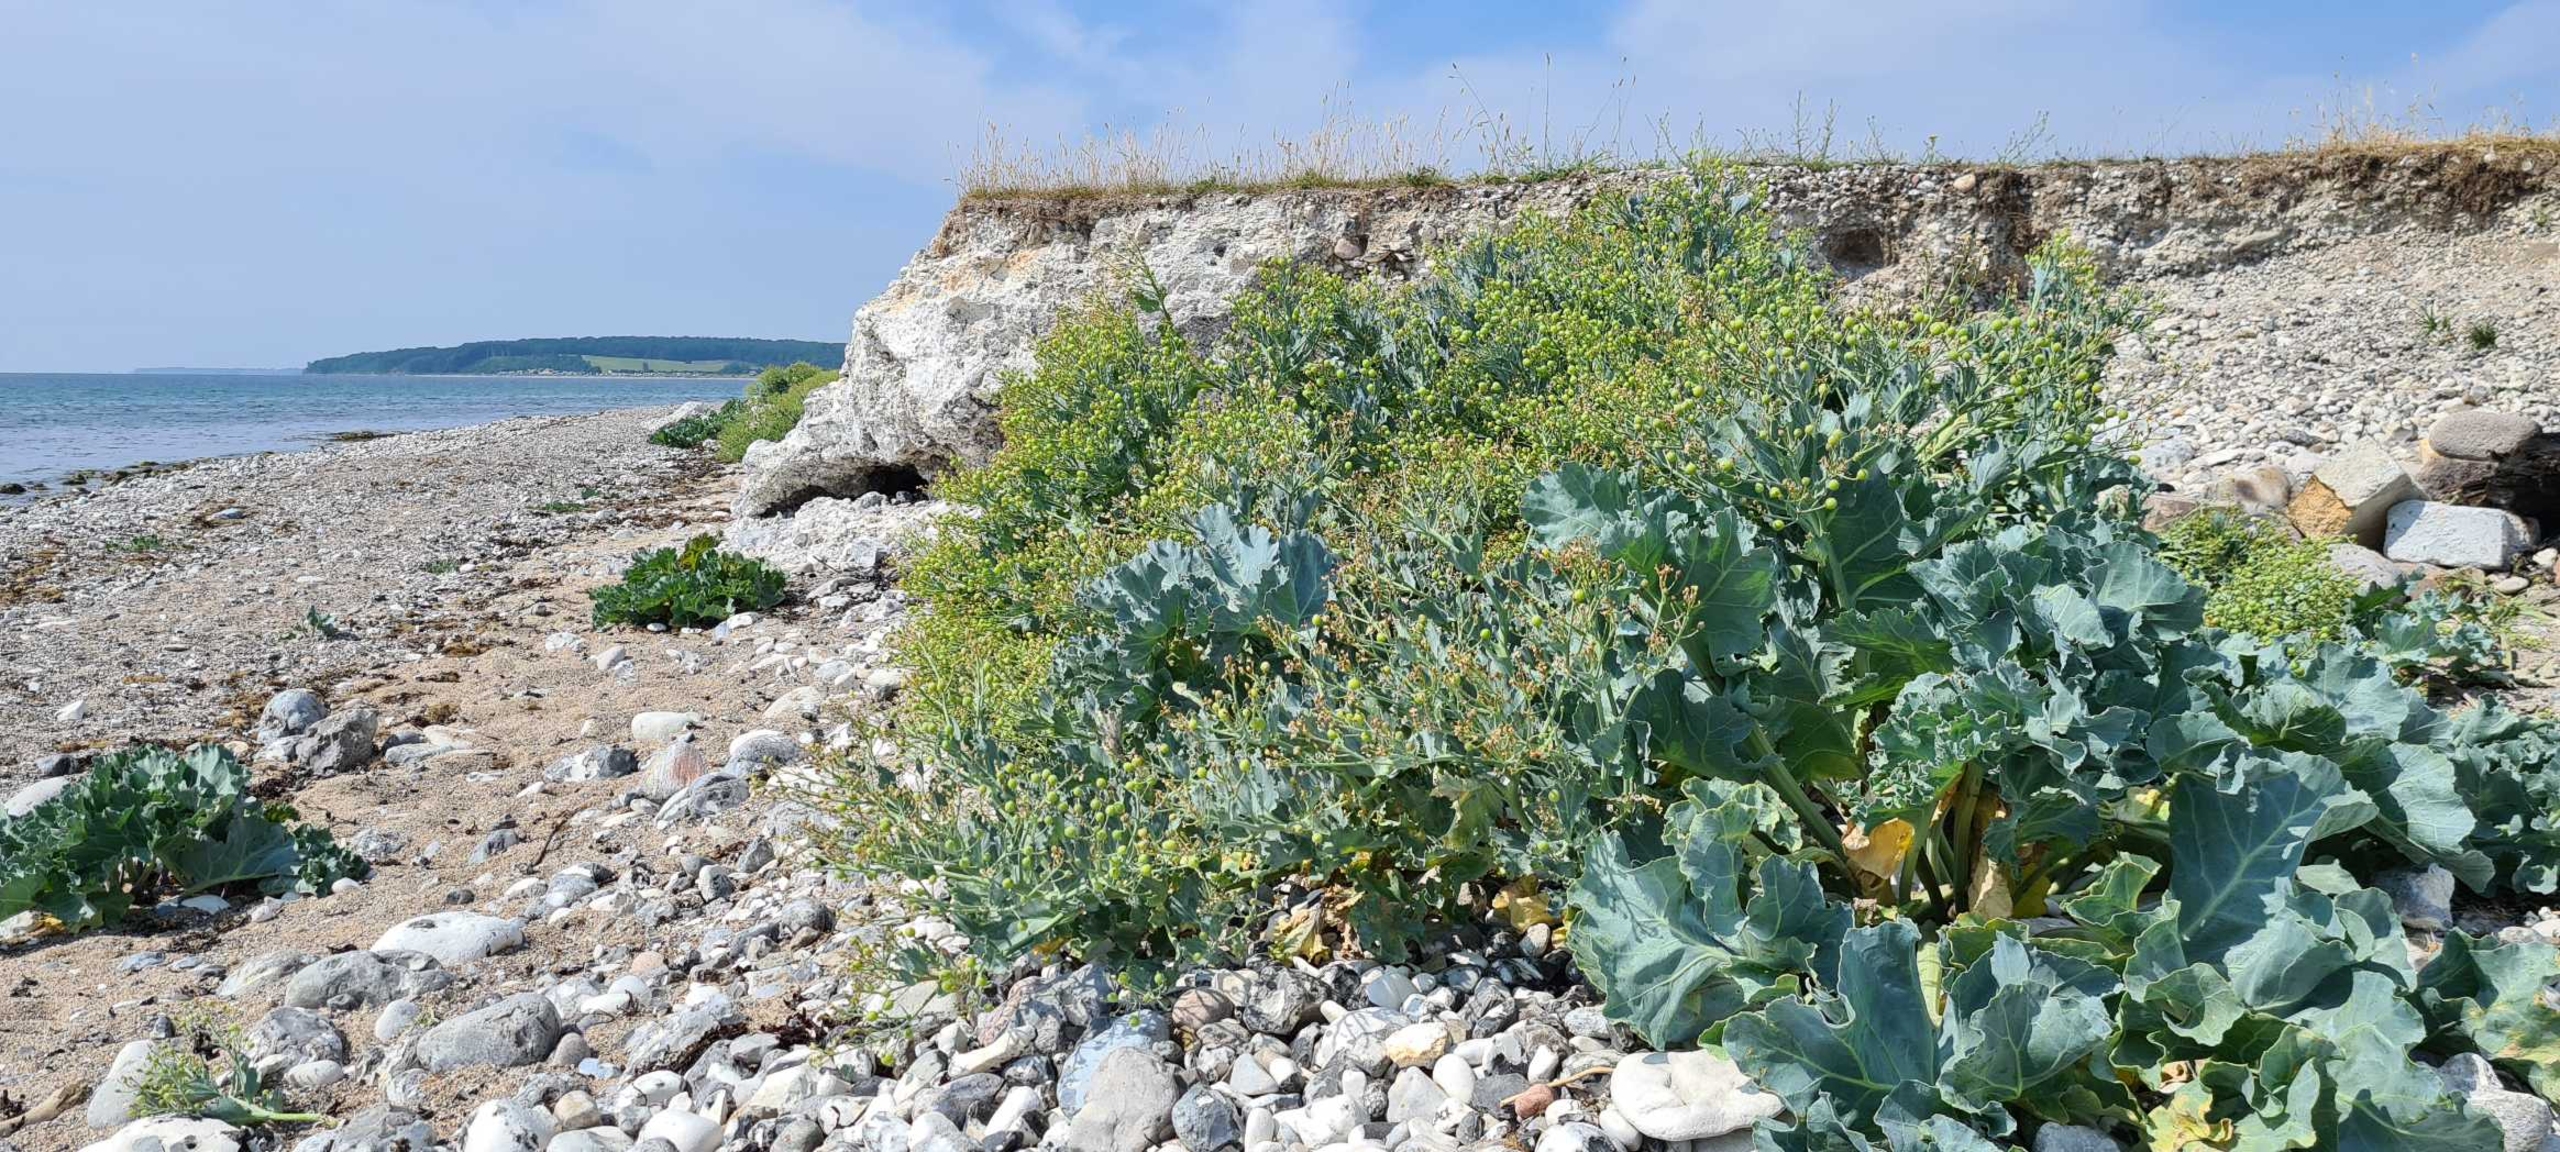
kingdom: Plantae
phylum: Tracheophyta
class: Magnoliopsida
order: Brassicales
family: Brassicaceae
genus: Crambe
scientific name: Crambe maritima
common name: Strandkål
